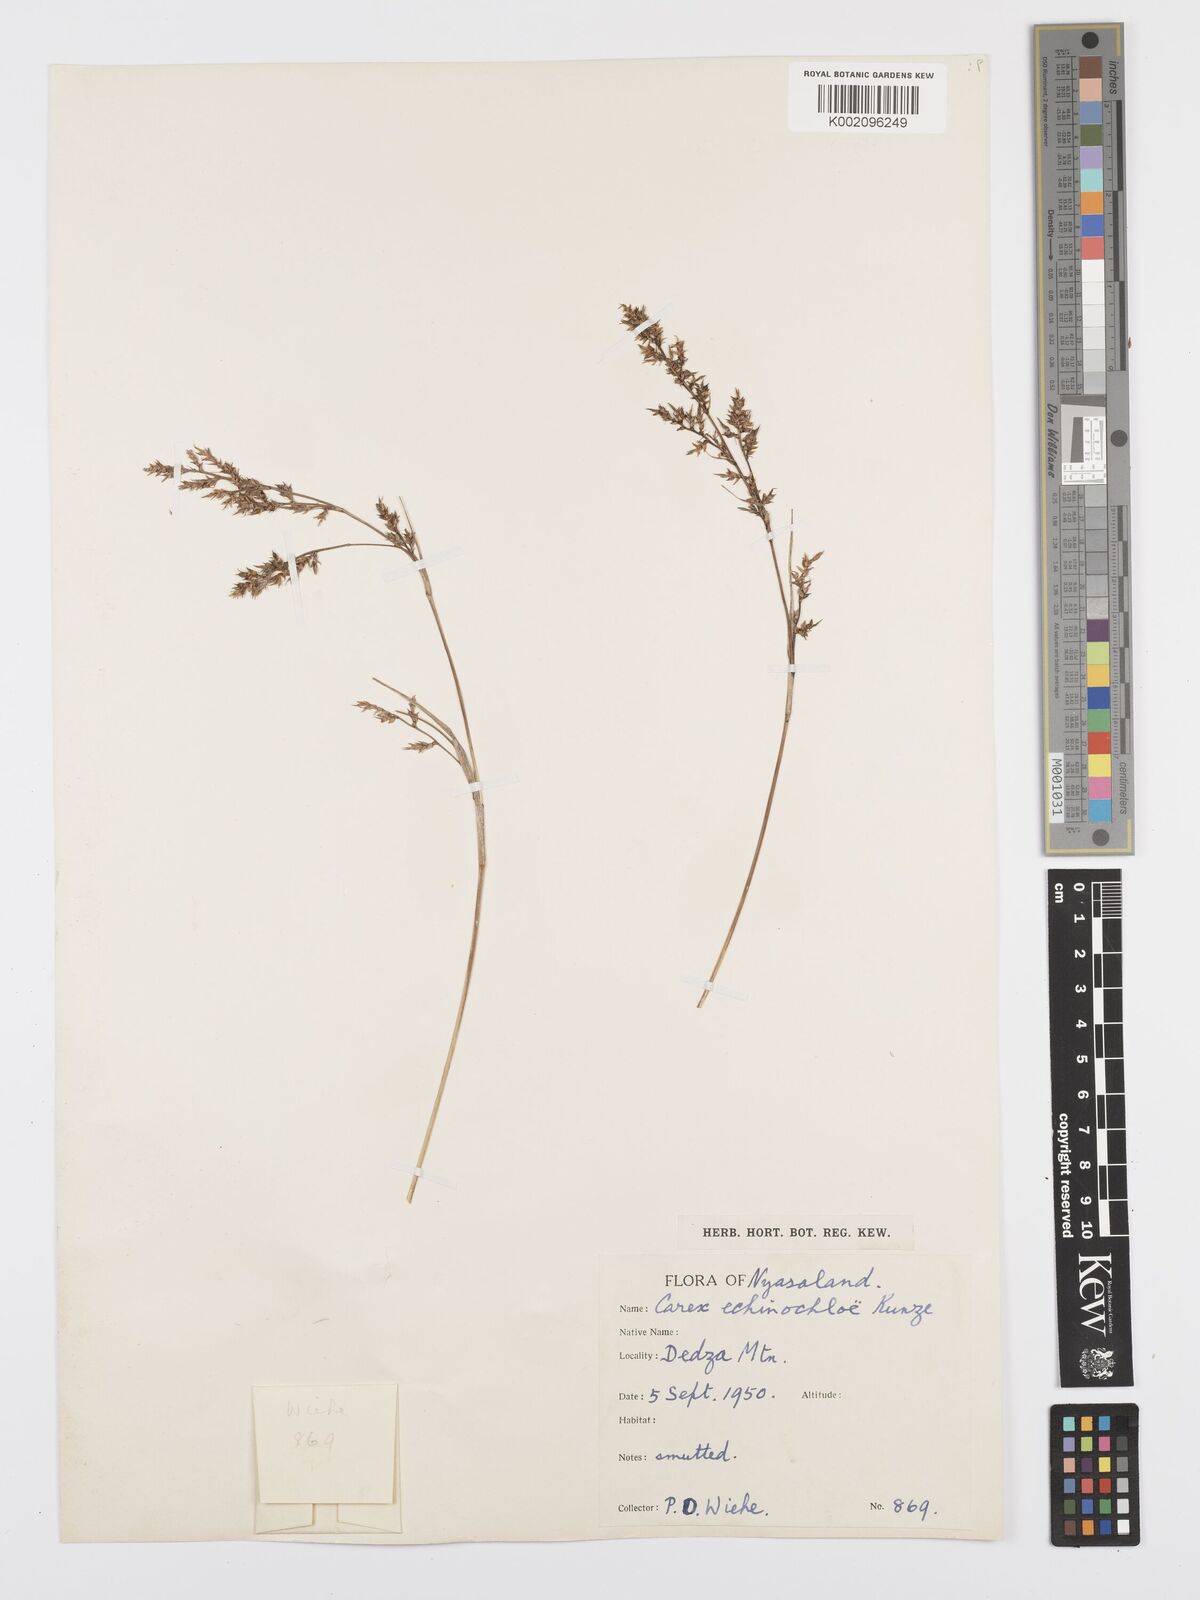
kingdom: Plantae
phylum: Tracheophyta
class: Liliopsida
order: Poales
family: Cyperaceae
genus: Carex
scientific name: Carex echinochloe
